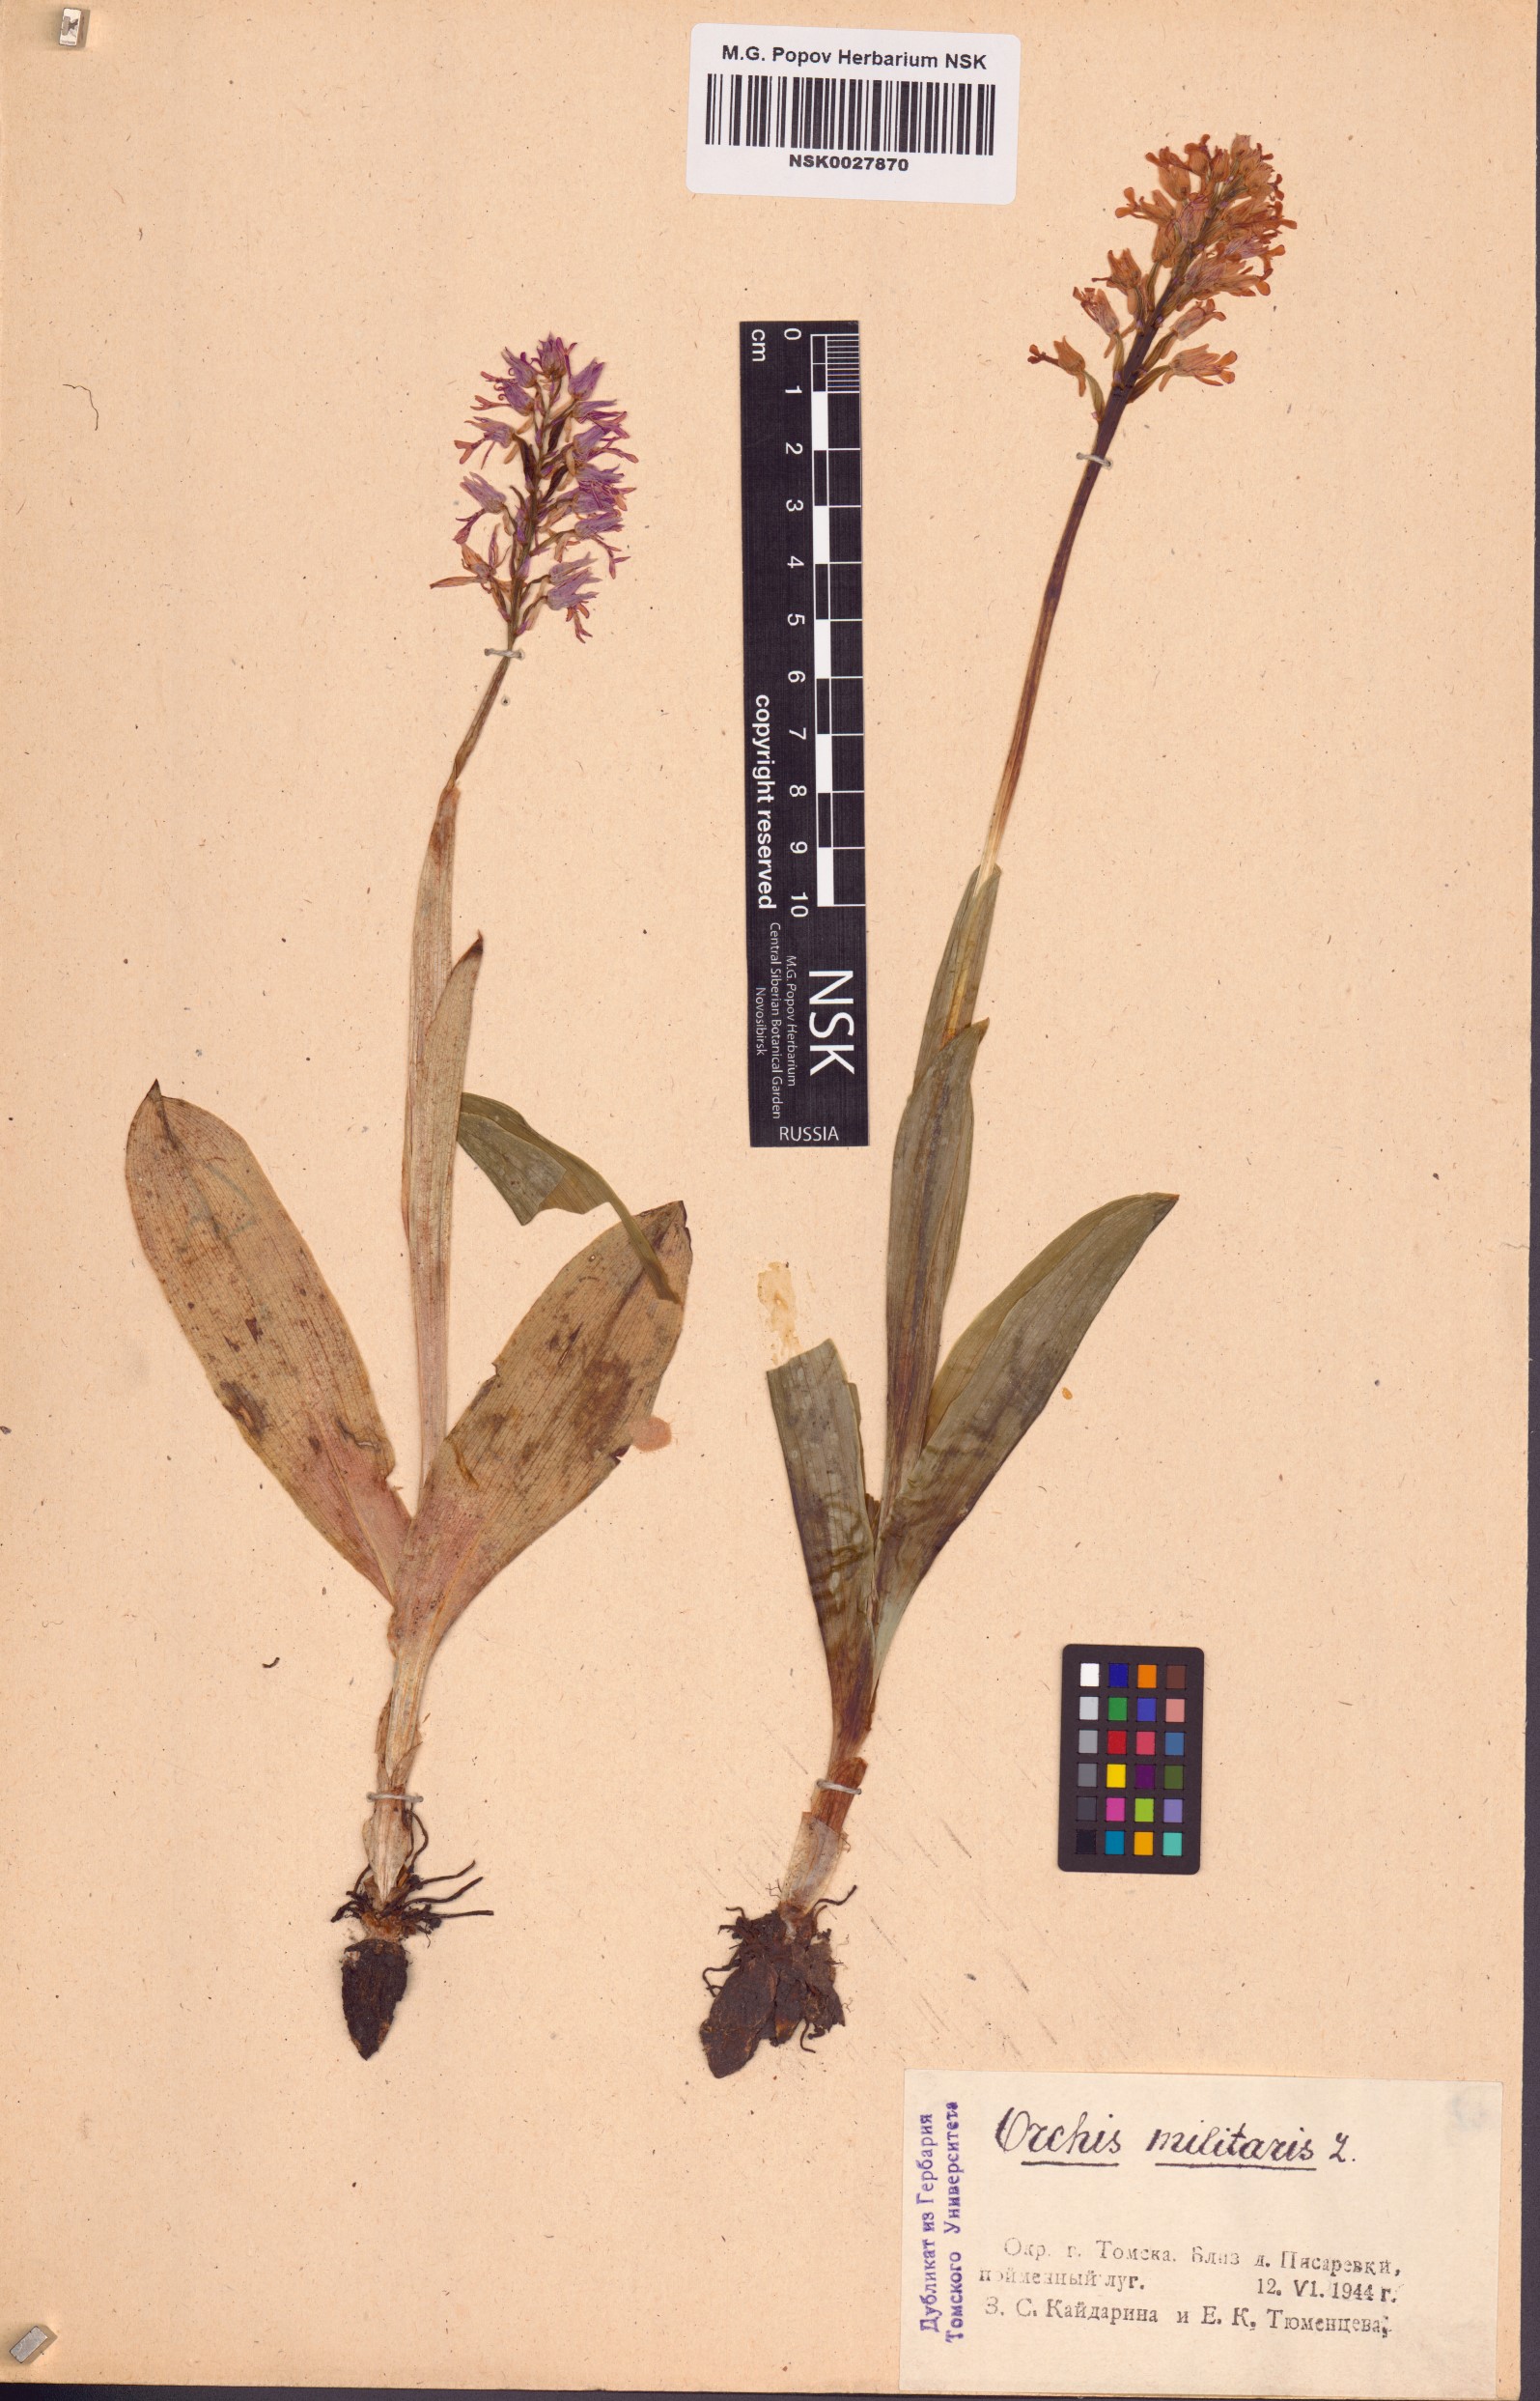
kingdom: Plantae
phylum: Tracheophyta
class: Liliopsida
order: Asparagales
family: Orchidaceae
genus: Orchis
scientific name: Orchis militaris
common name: Military orchid
